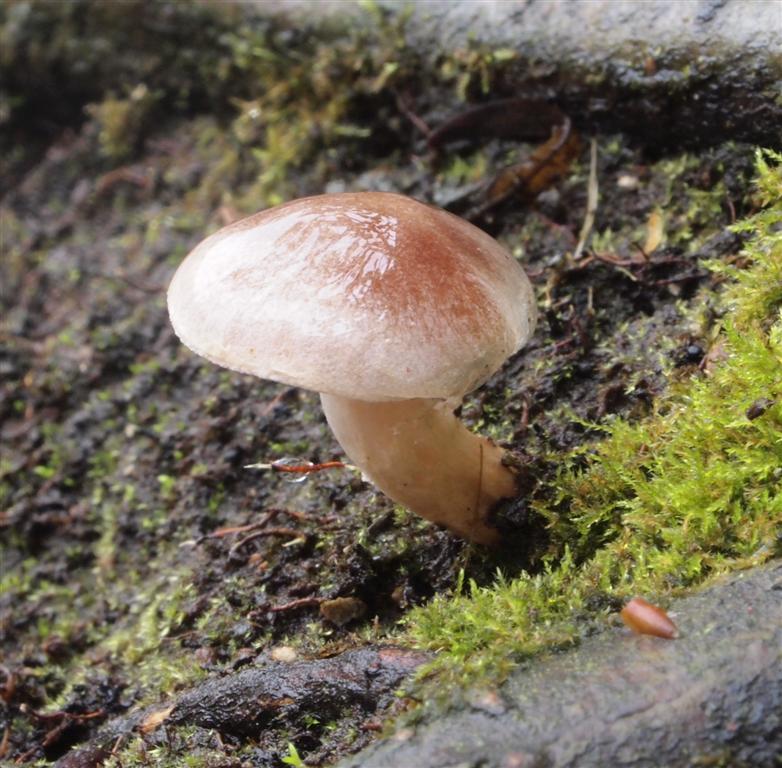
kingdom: Fungi
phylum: Basidiomycota
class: Agaricomycetes
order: Agaricales
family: Hymenogastraceae
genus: Hebeloma
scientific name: Hebeloma mesophaeum
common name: lerbrun tåreblad
